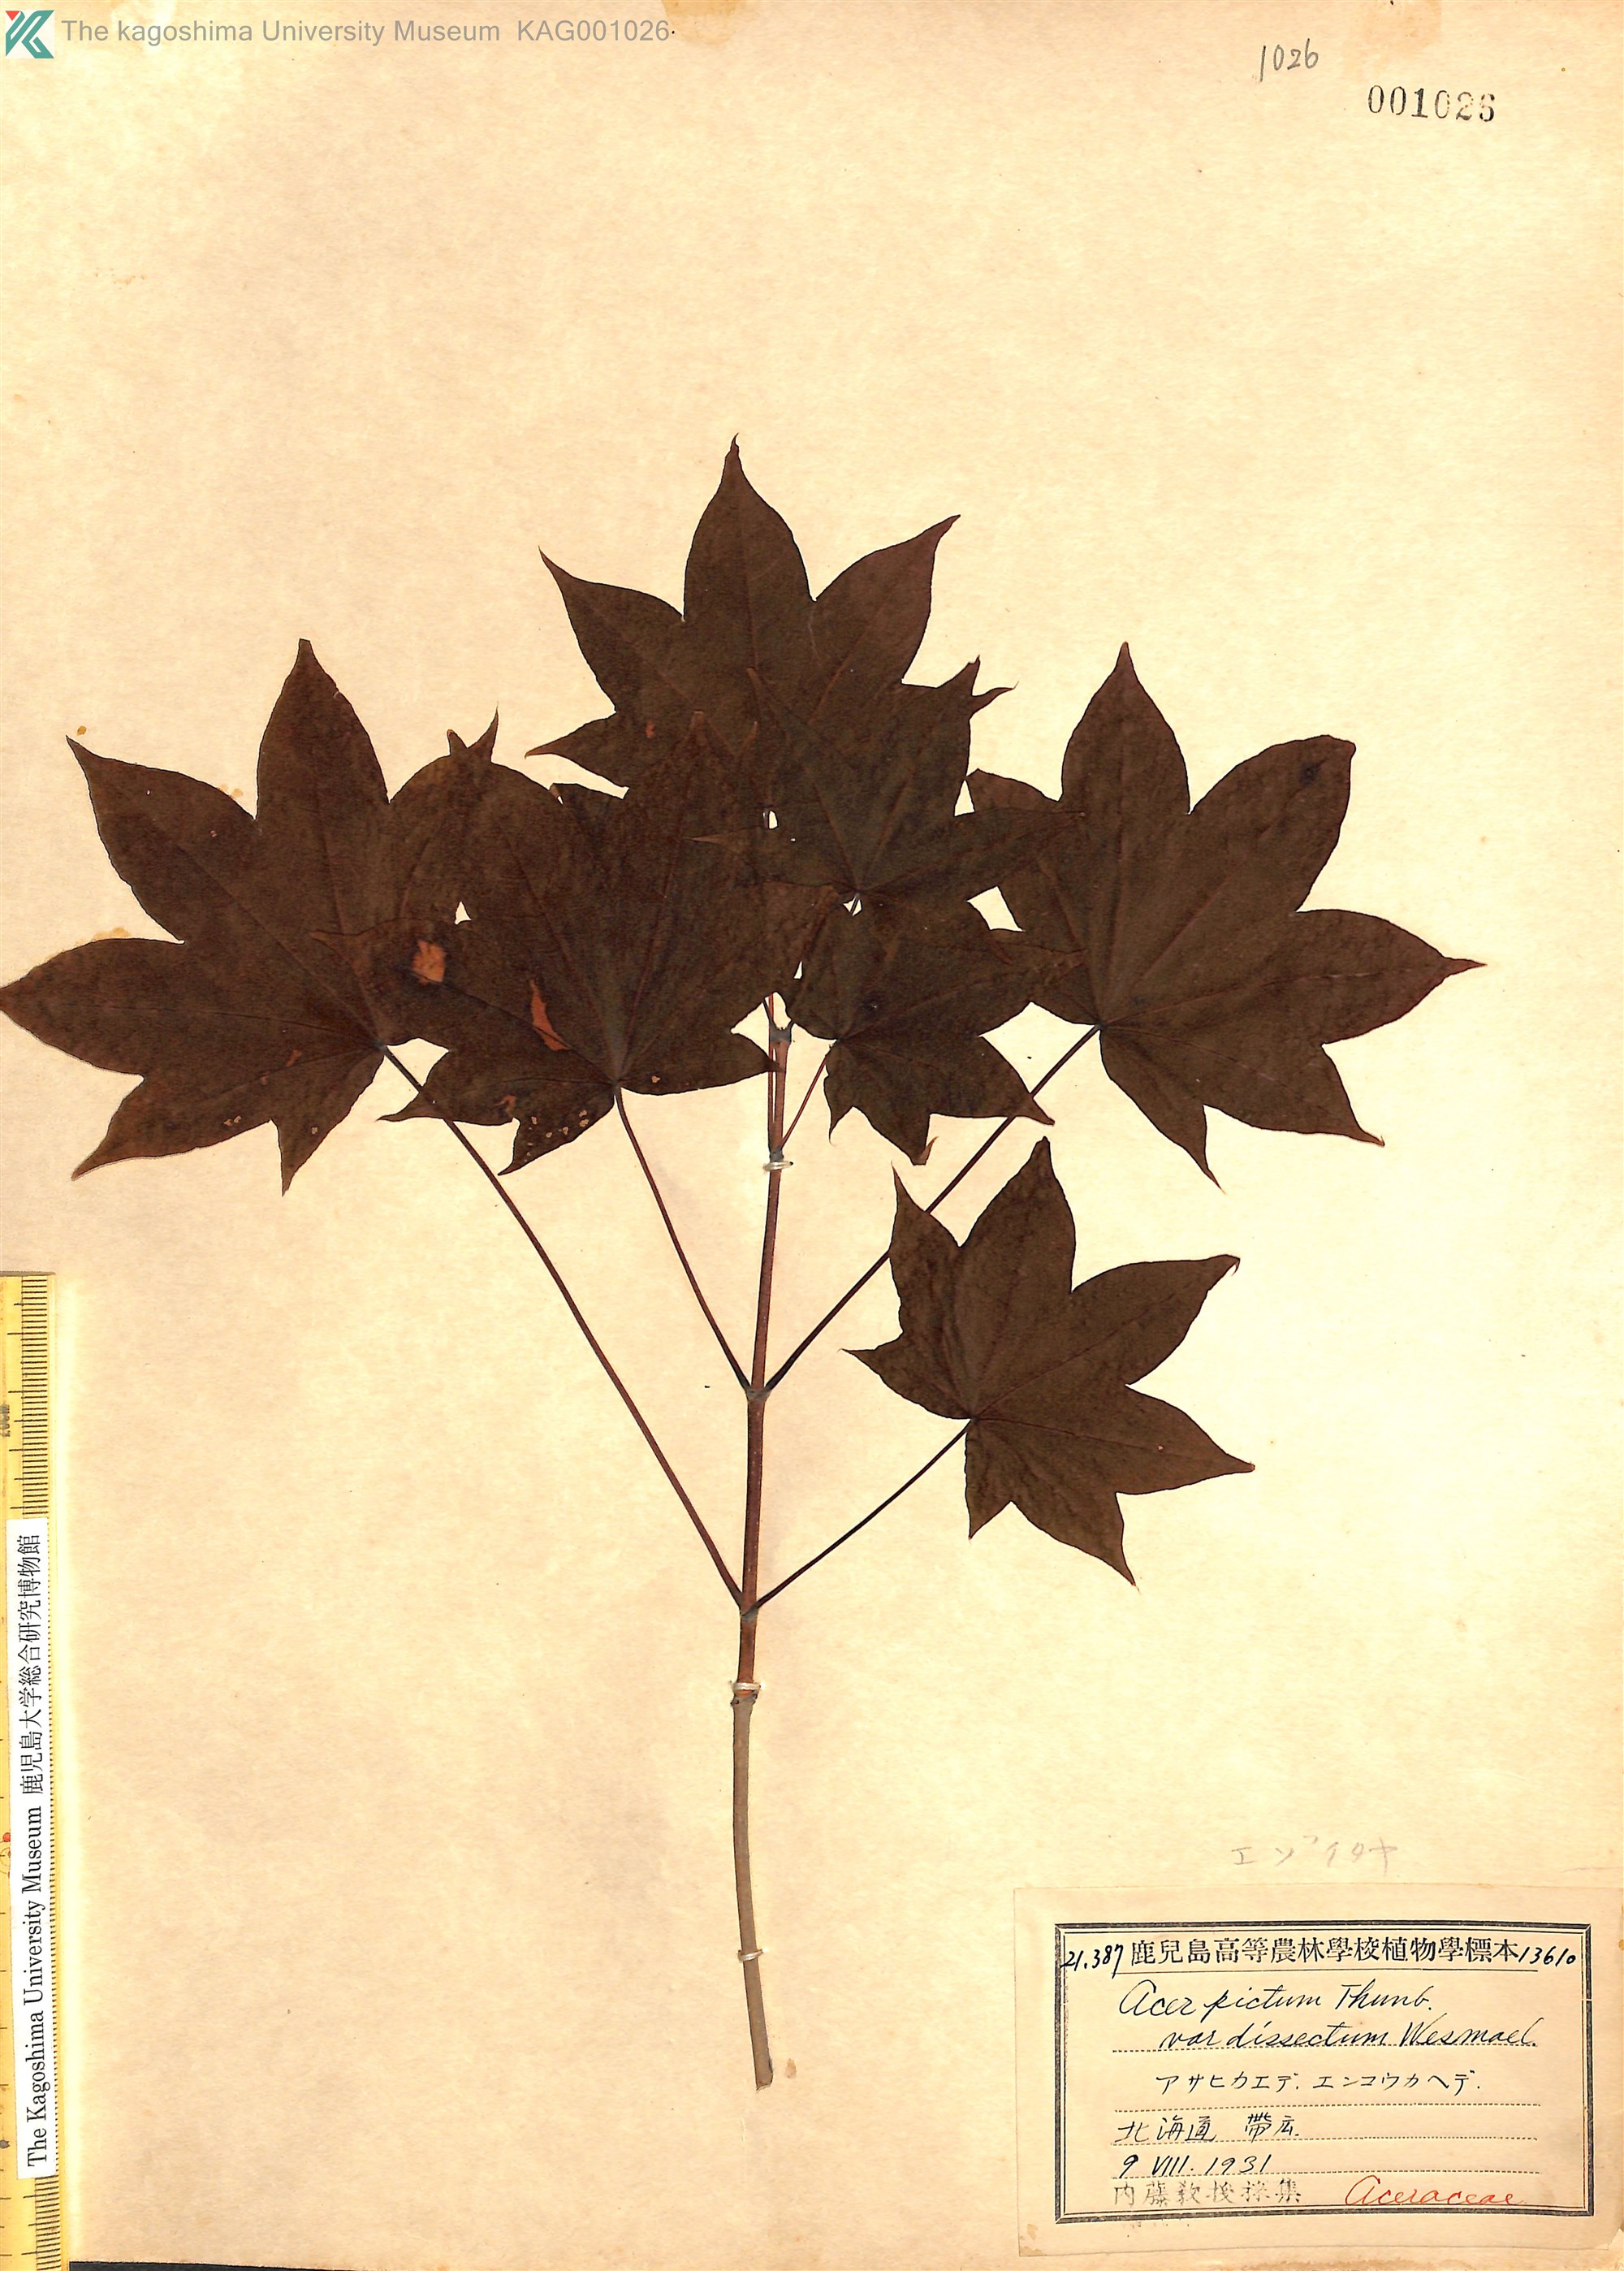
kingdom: Plantae
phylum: Tracheophyta
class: Magnoliopsida
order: Sapindales
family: Sapindaceae
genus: Acer
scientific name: Acer pictum
